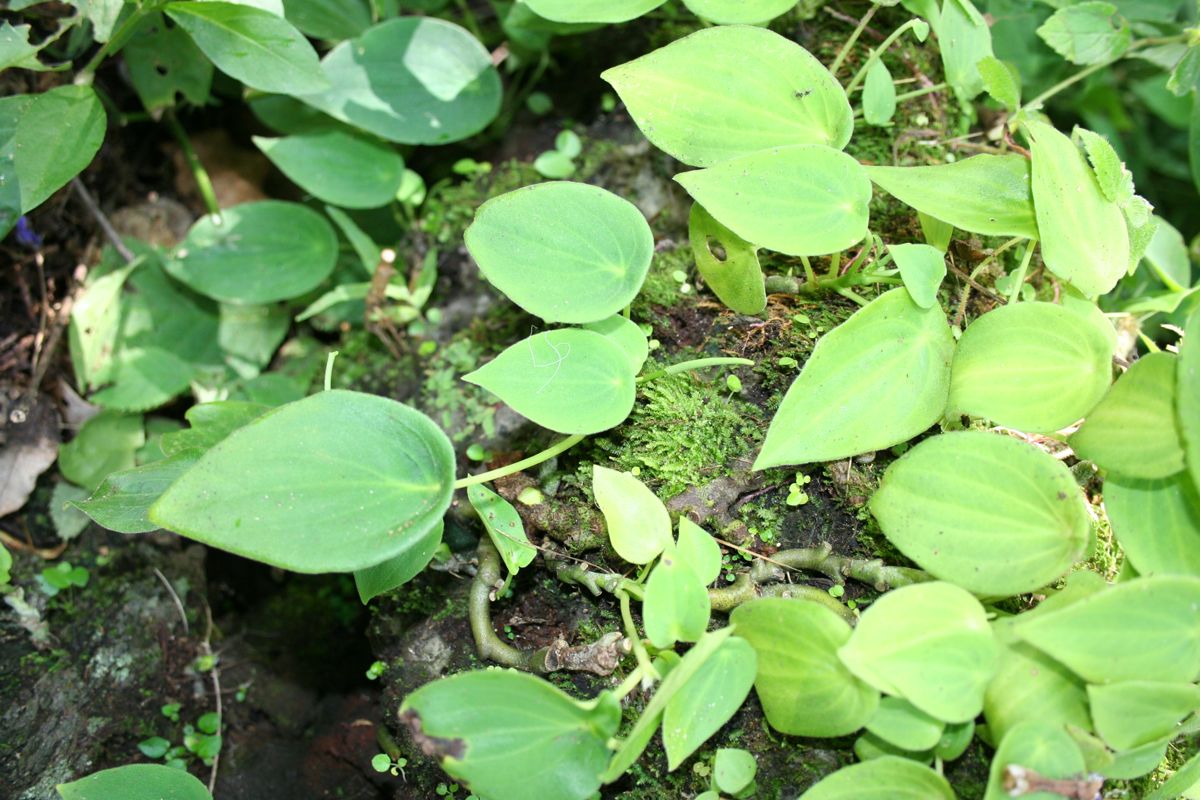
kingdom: Plantae
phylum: Tracheophyta
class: Magnoliopsida
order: Piperales
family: Piperaceae
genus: Peperomia
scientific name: Peperomia lanceolatopeltata
